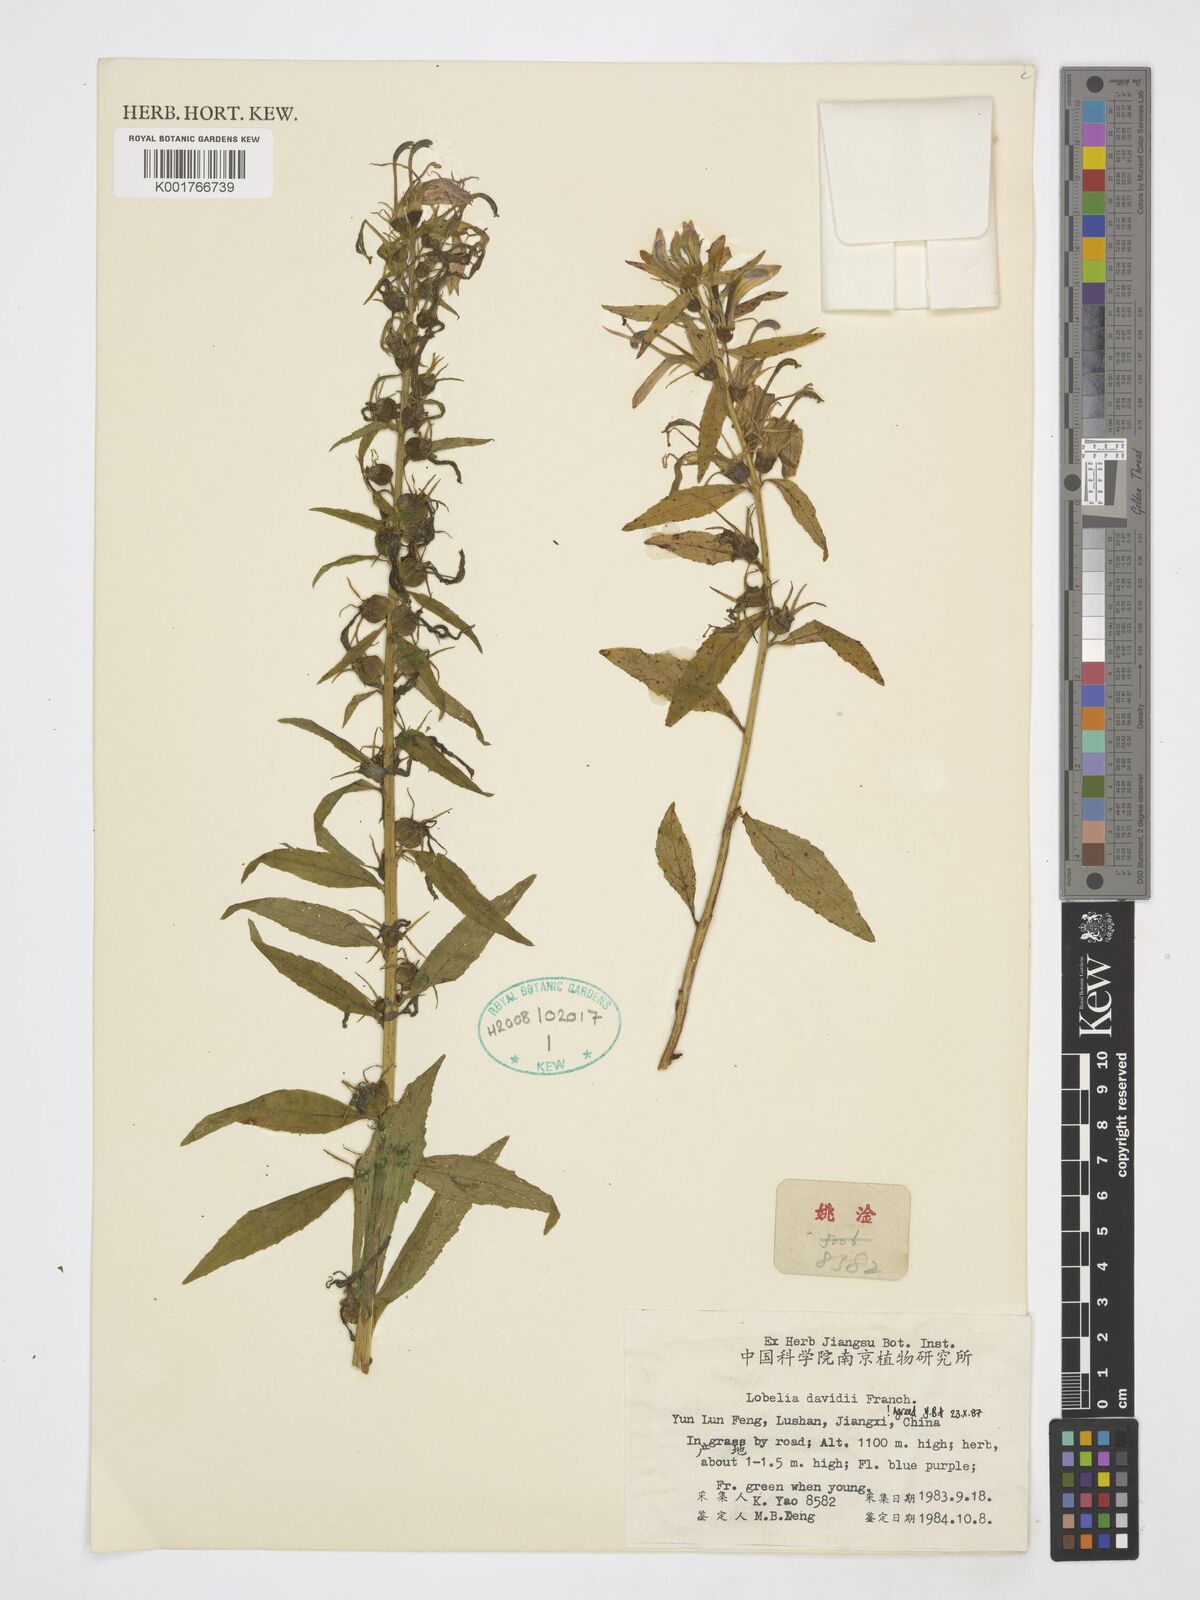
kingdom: Plantae
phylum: Tracheophyta
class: Magnoliopsida
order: Asterales
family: Campanulaceae
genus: Lobelia
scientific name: Lobelia davidii
